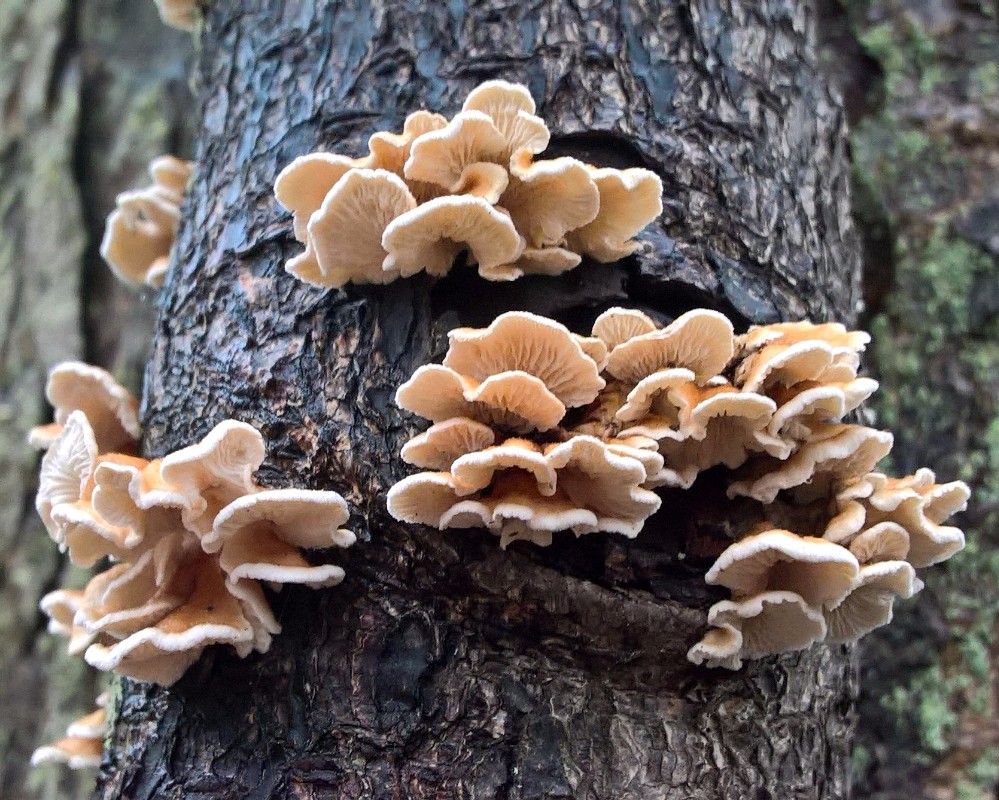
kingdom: Fungi
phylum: Basidiomycota
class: Agaricomycetes
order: Amylocorticiales
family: Amylocorticiaceae
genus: Plicaturopsis
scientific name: Plicaturopsis crispa
